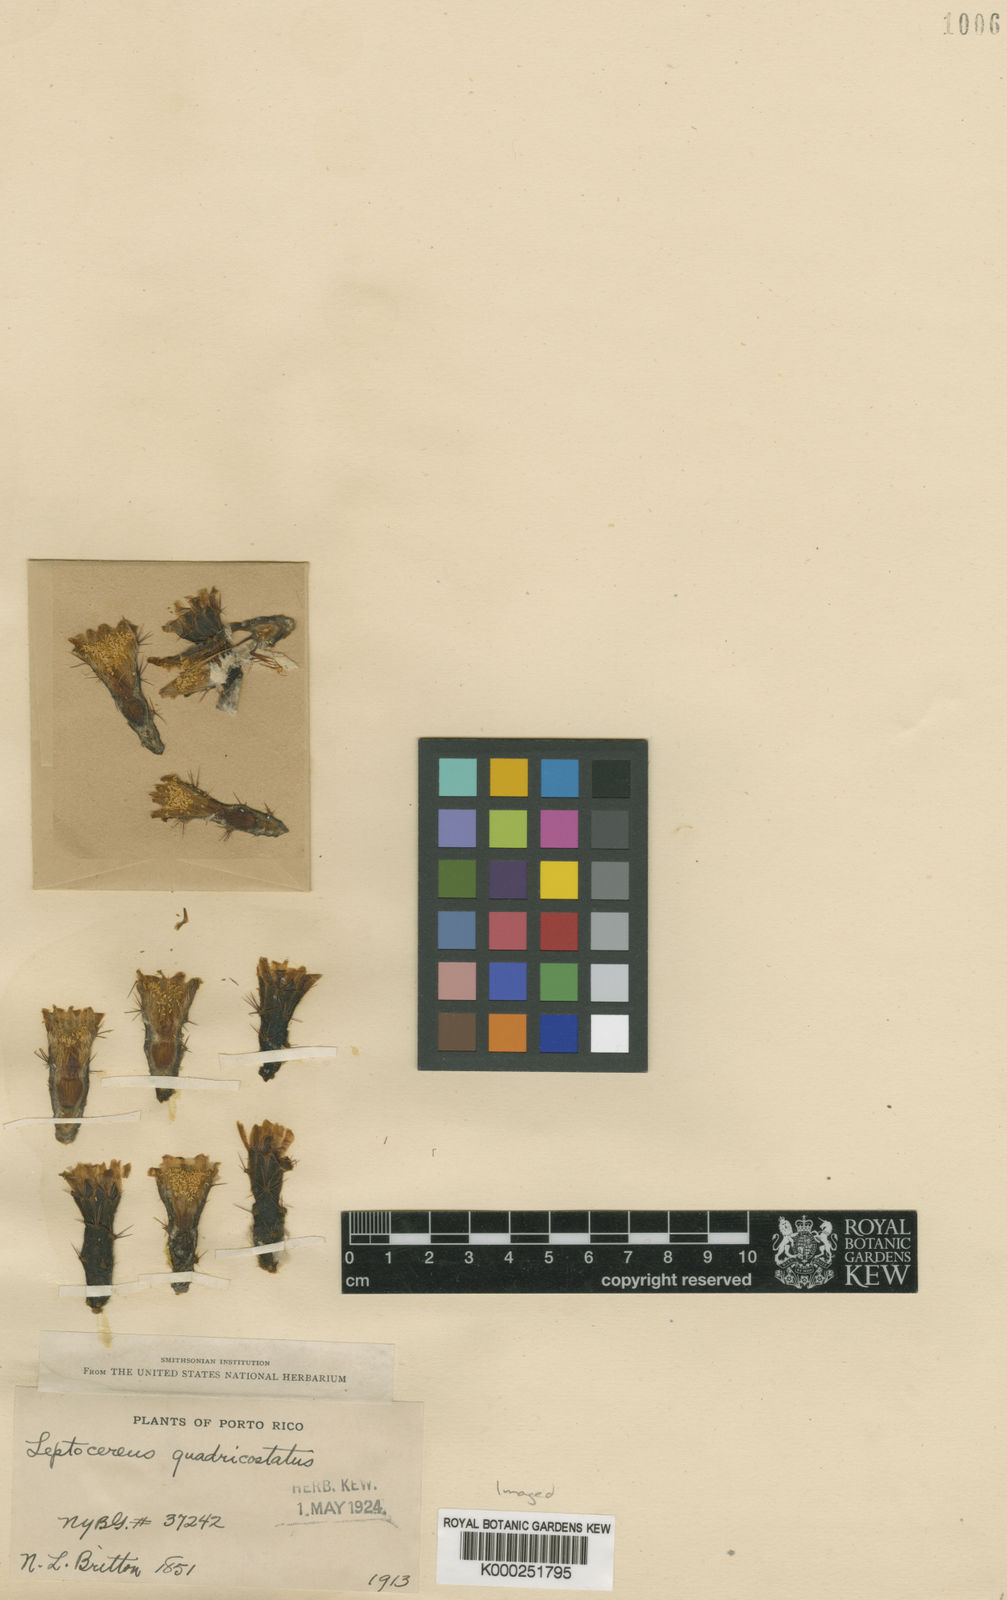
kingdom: Plantae
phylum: Tracheophyta
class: Magnoliopsida
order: Caryophyllales
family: Cactaceae
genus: Leptocereus
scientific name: Leptocereus quadricostatus
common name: Sebucan
